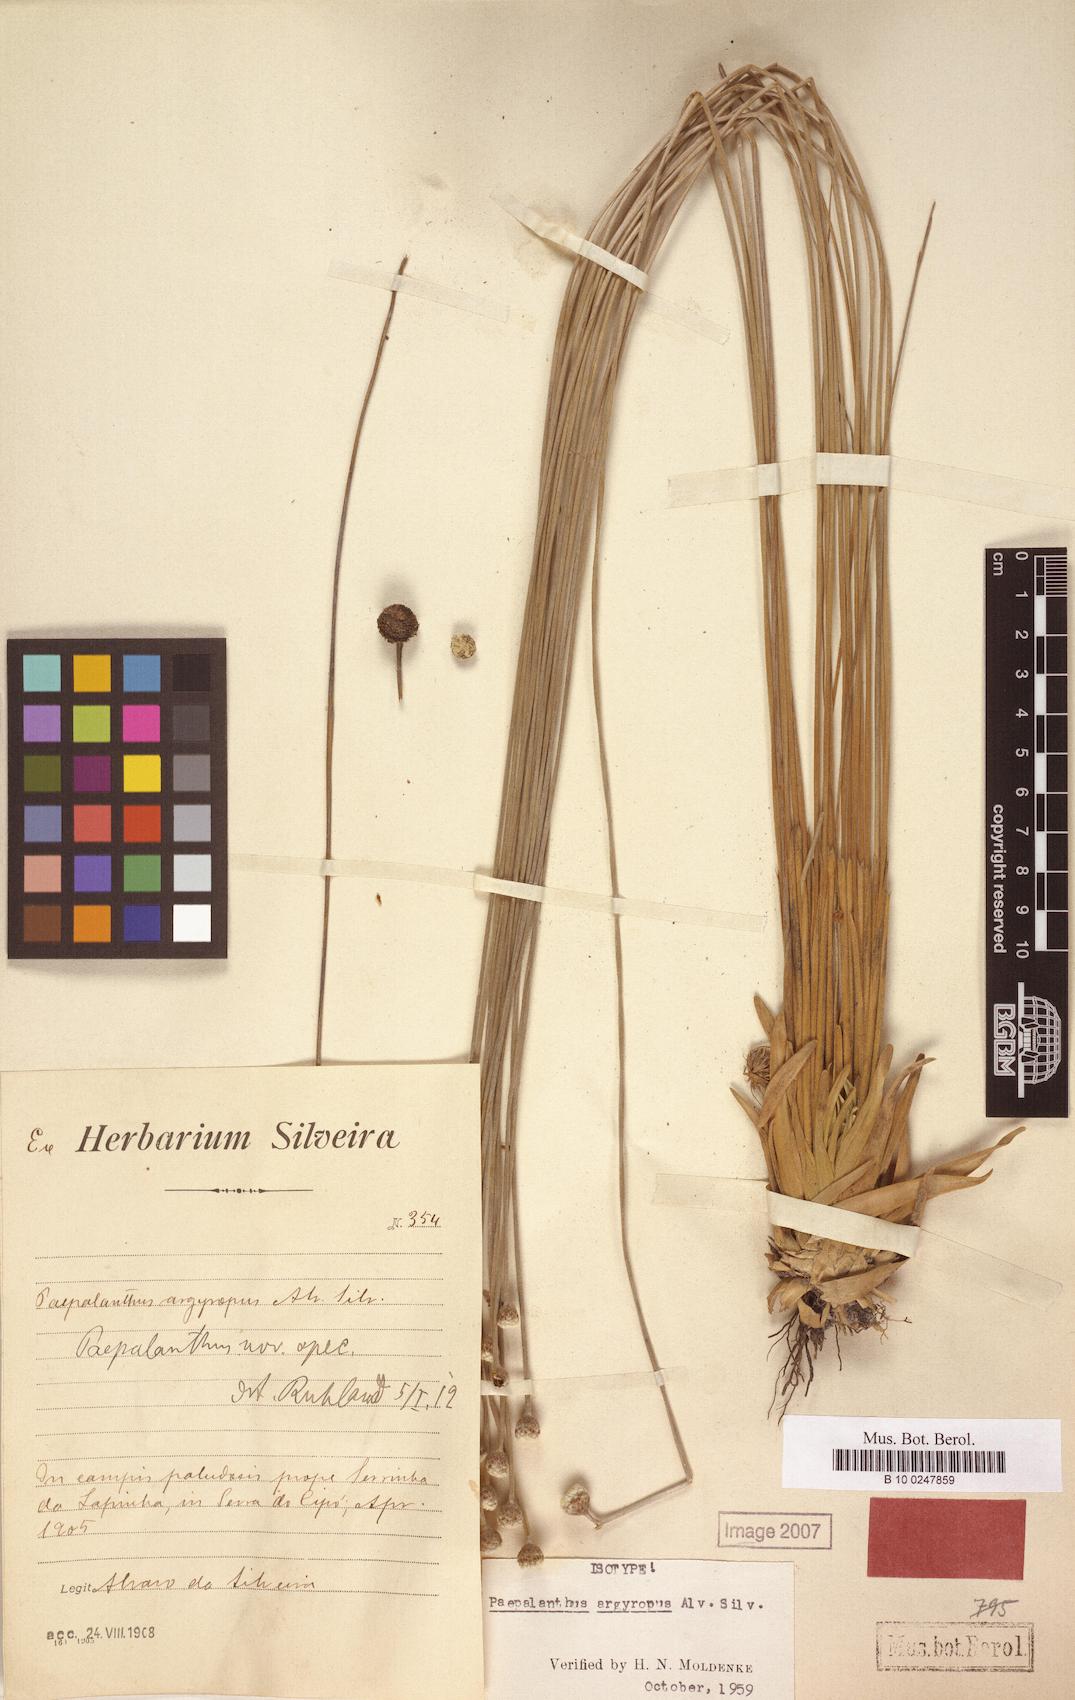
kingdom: Plantae
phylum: Tracheophyta
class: Liliopsida
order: Poales
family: Eriocaulaceae
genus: Paepalanthus
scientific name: Paepalanthus argyropus
